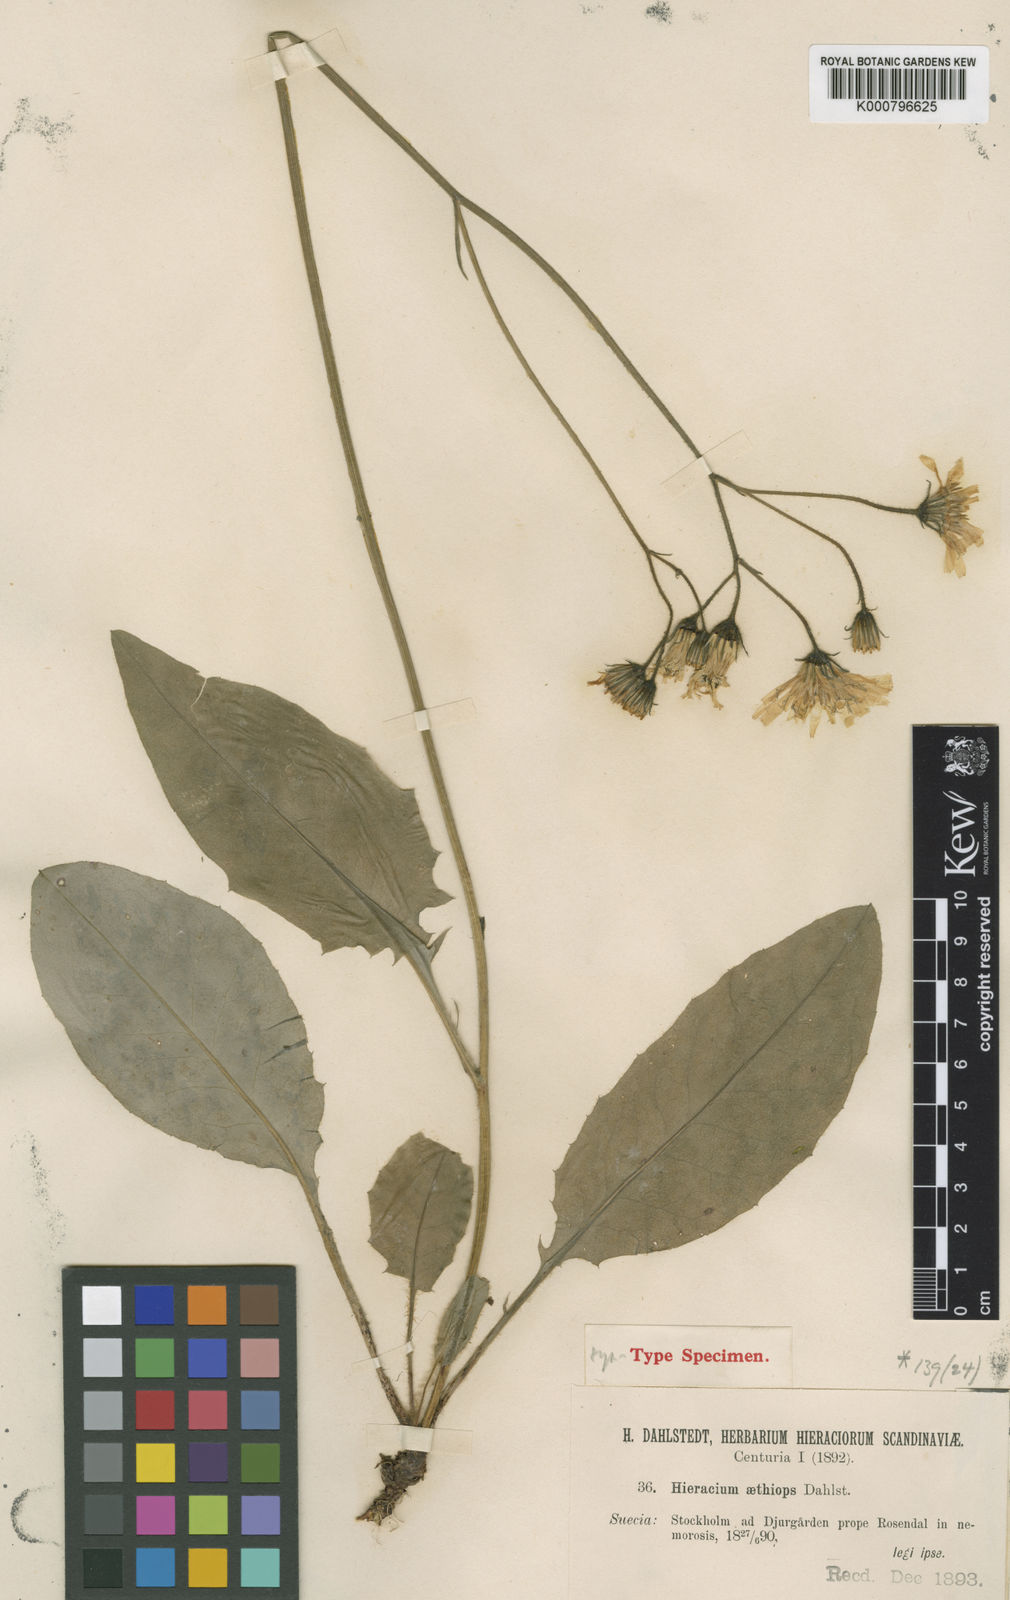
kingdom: Plantae
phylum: Tracheophyta
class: Magnoliopsida
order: Asterales
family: Asteraceae
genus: Hieracium
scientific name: Hieracium murorum
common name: Wall hawkweed
